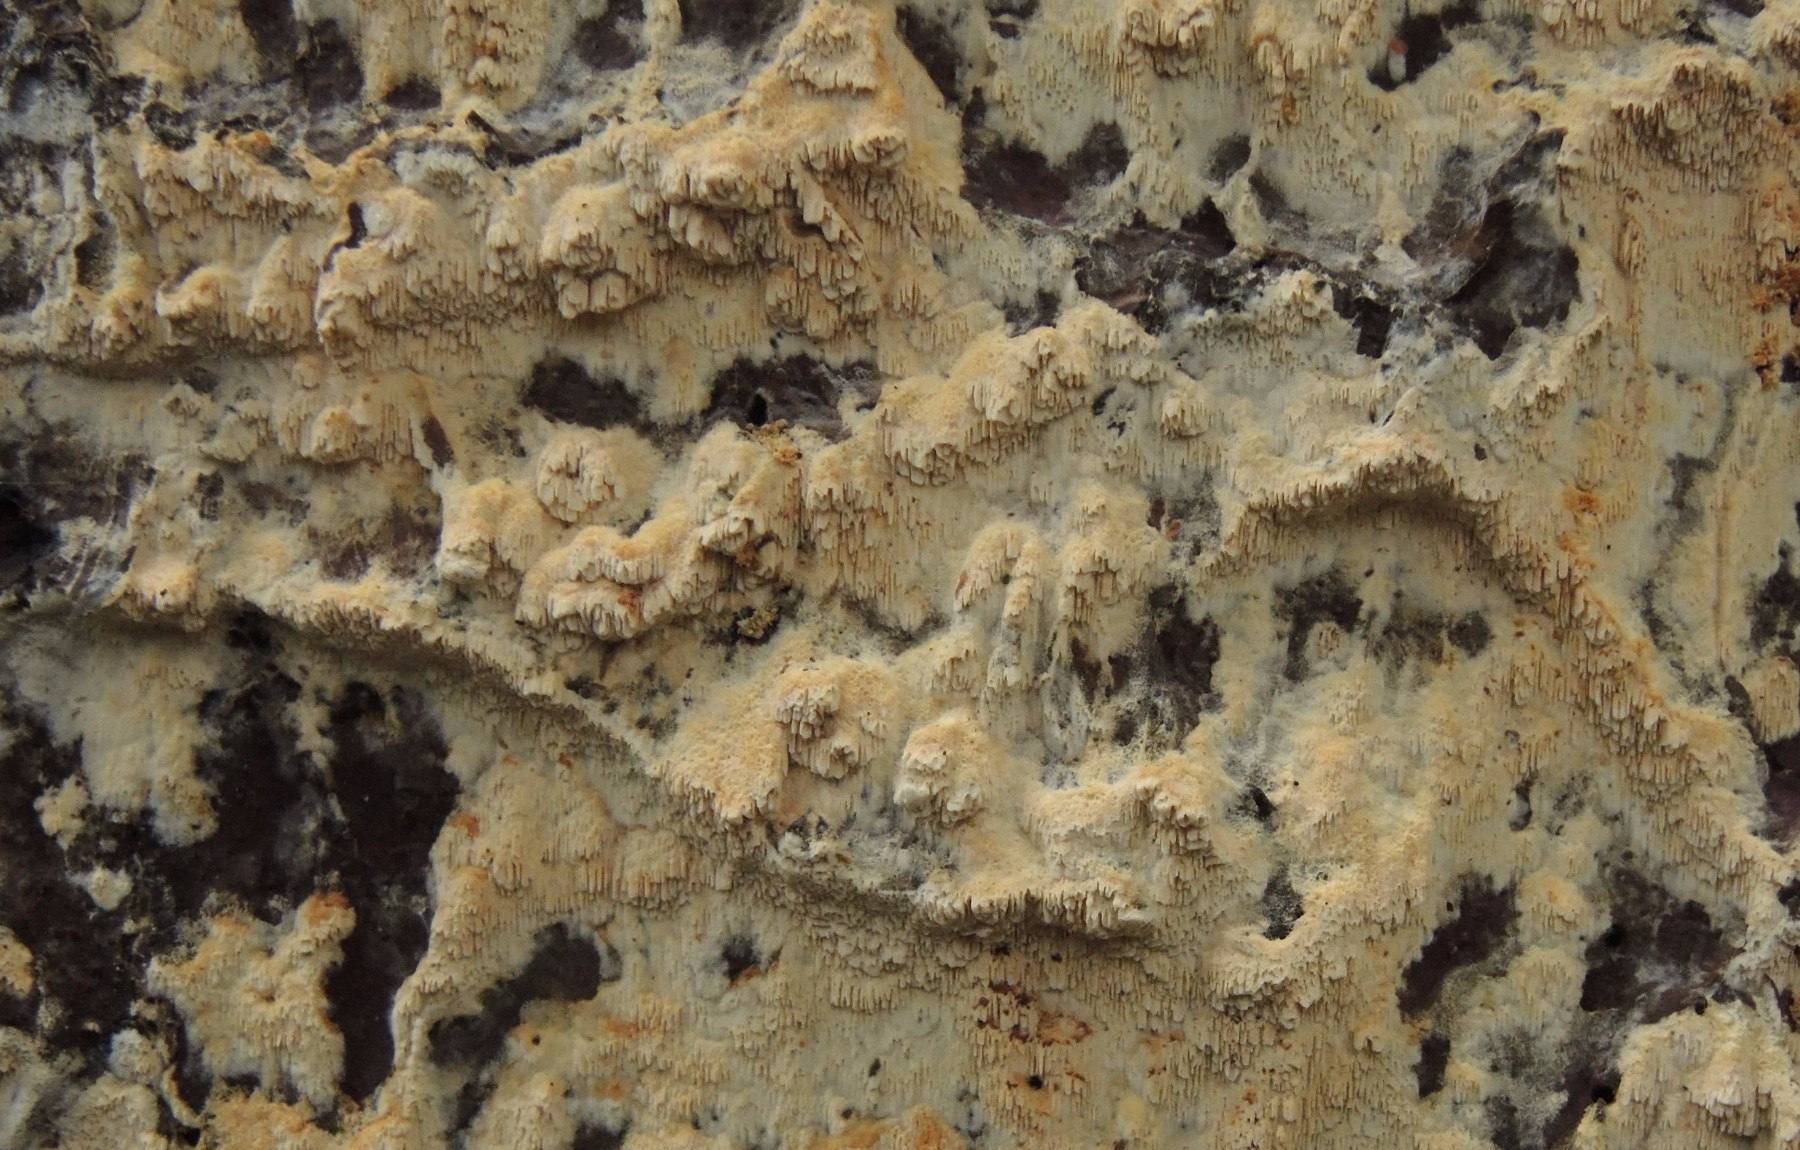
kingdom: Fungi
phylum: Basidiomycota
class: Agaricomycetes
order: Hymenochaetales
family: Schizoporaceae
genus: Schizopora
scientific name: Schizopora paradoxa
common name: hvid tandsvamp
